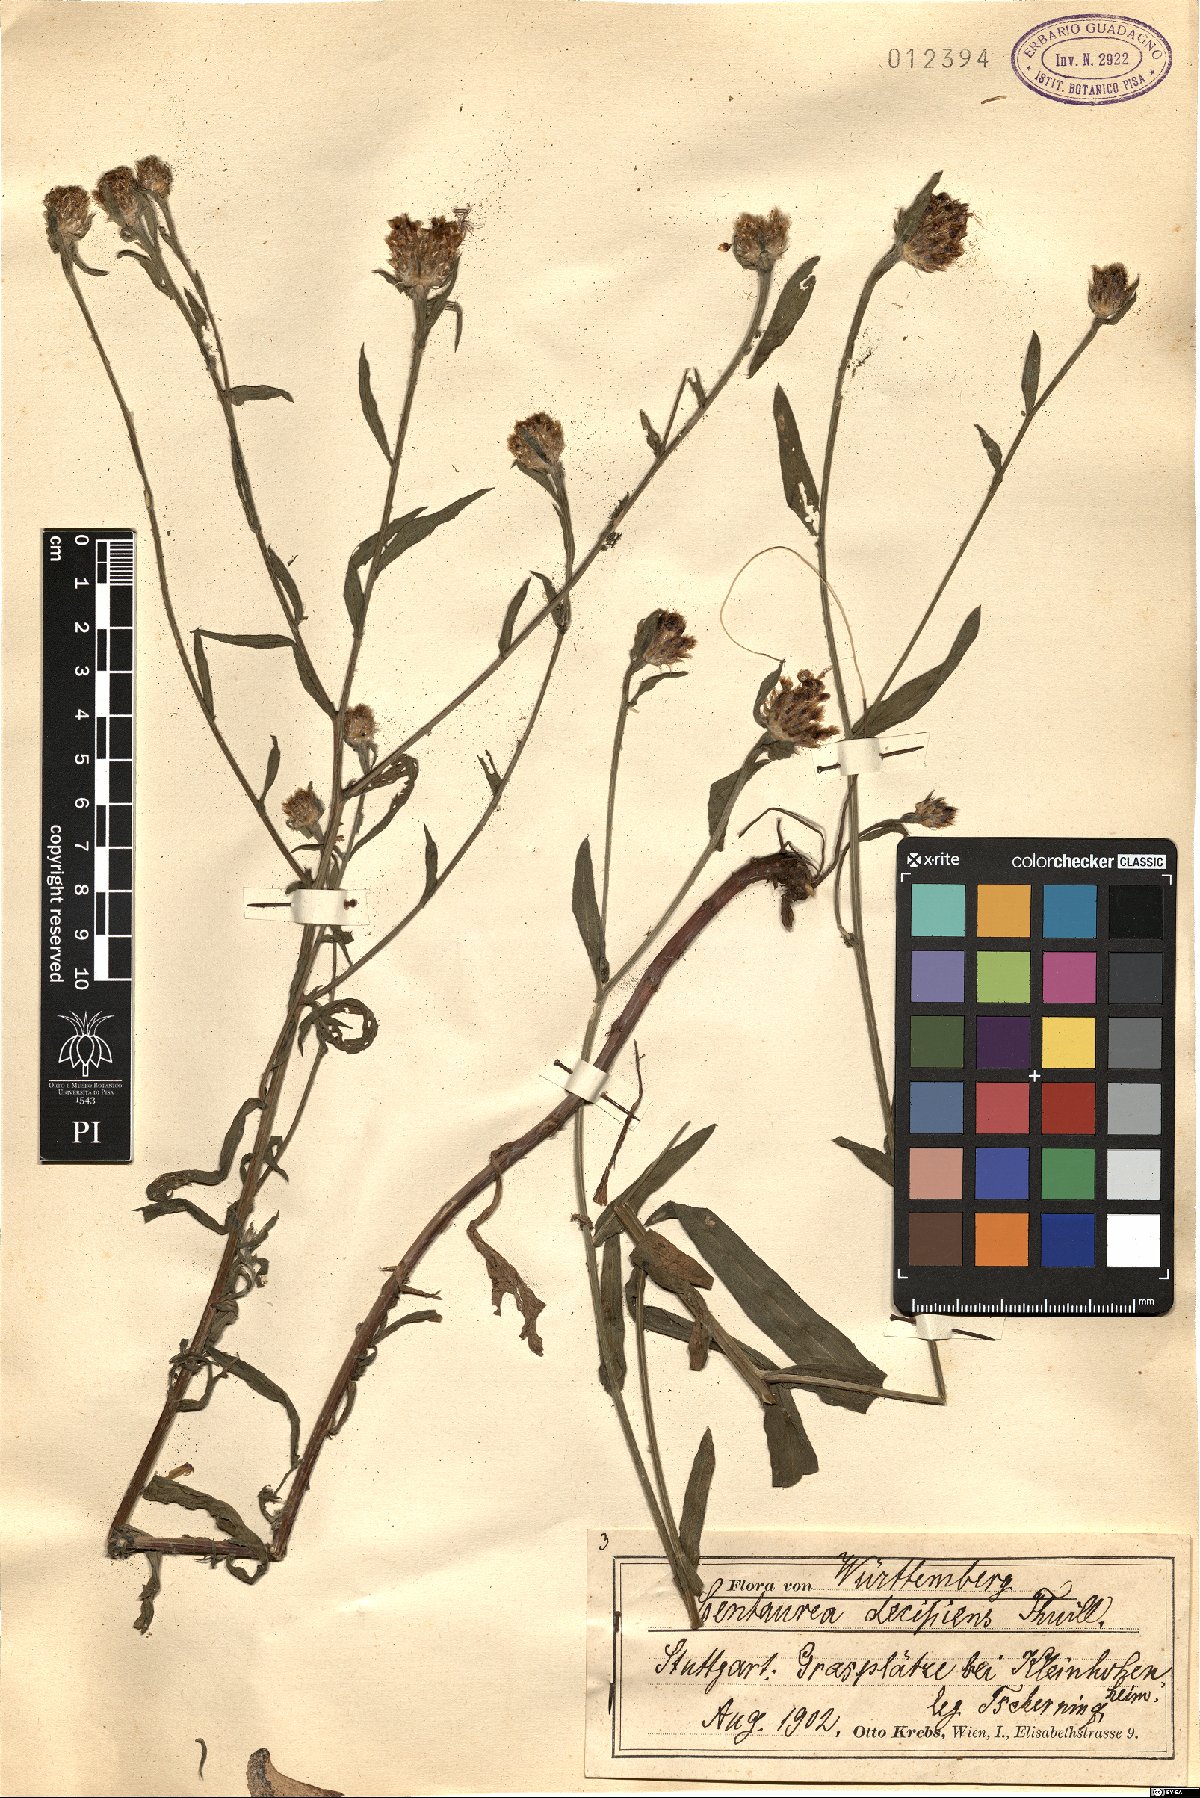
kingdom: Plantae
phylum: Tracheophyta
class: Magnoliopsida
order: Asterales
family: Asteraceae
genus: Centaurea
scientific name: Centaurea decipiens
